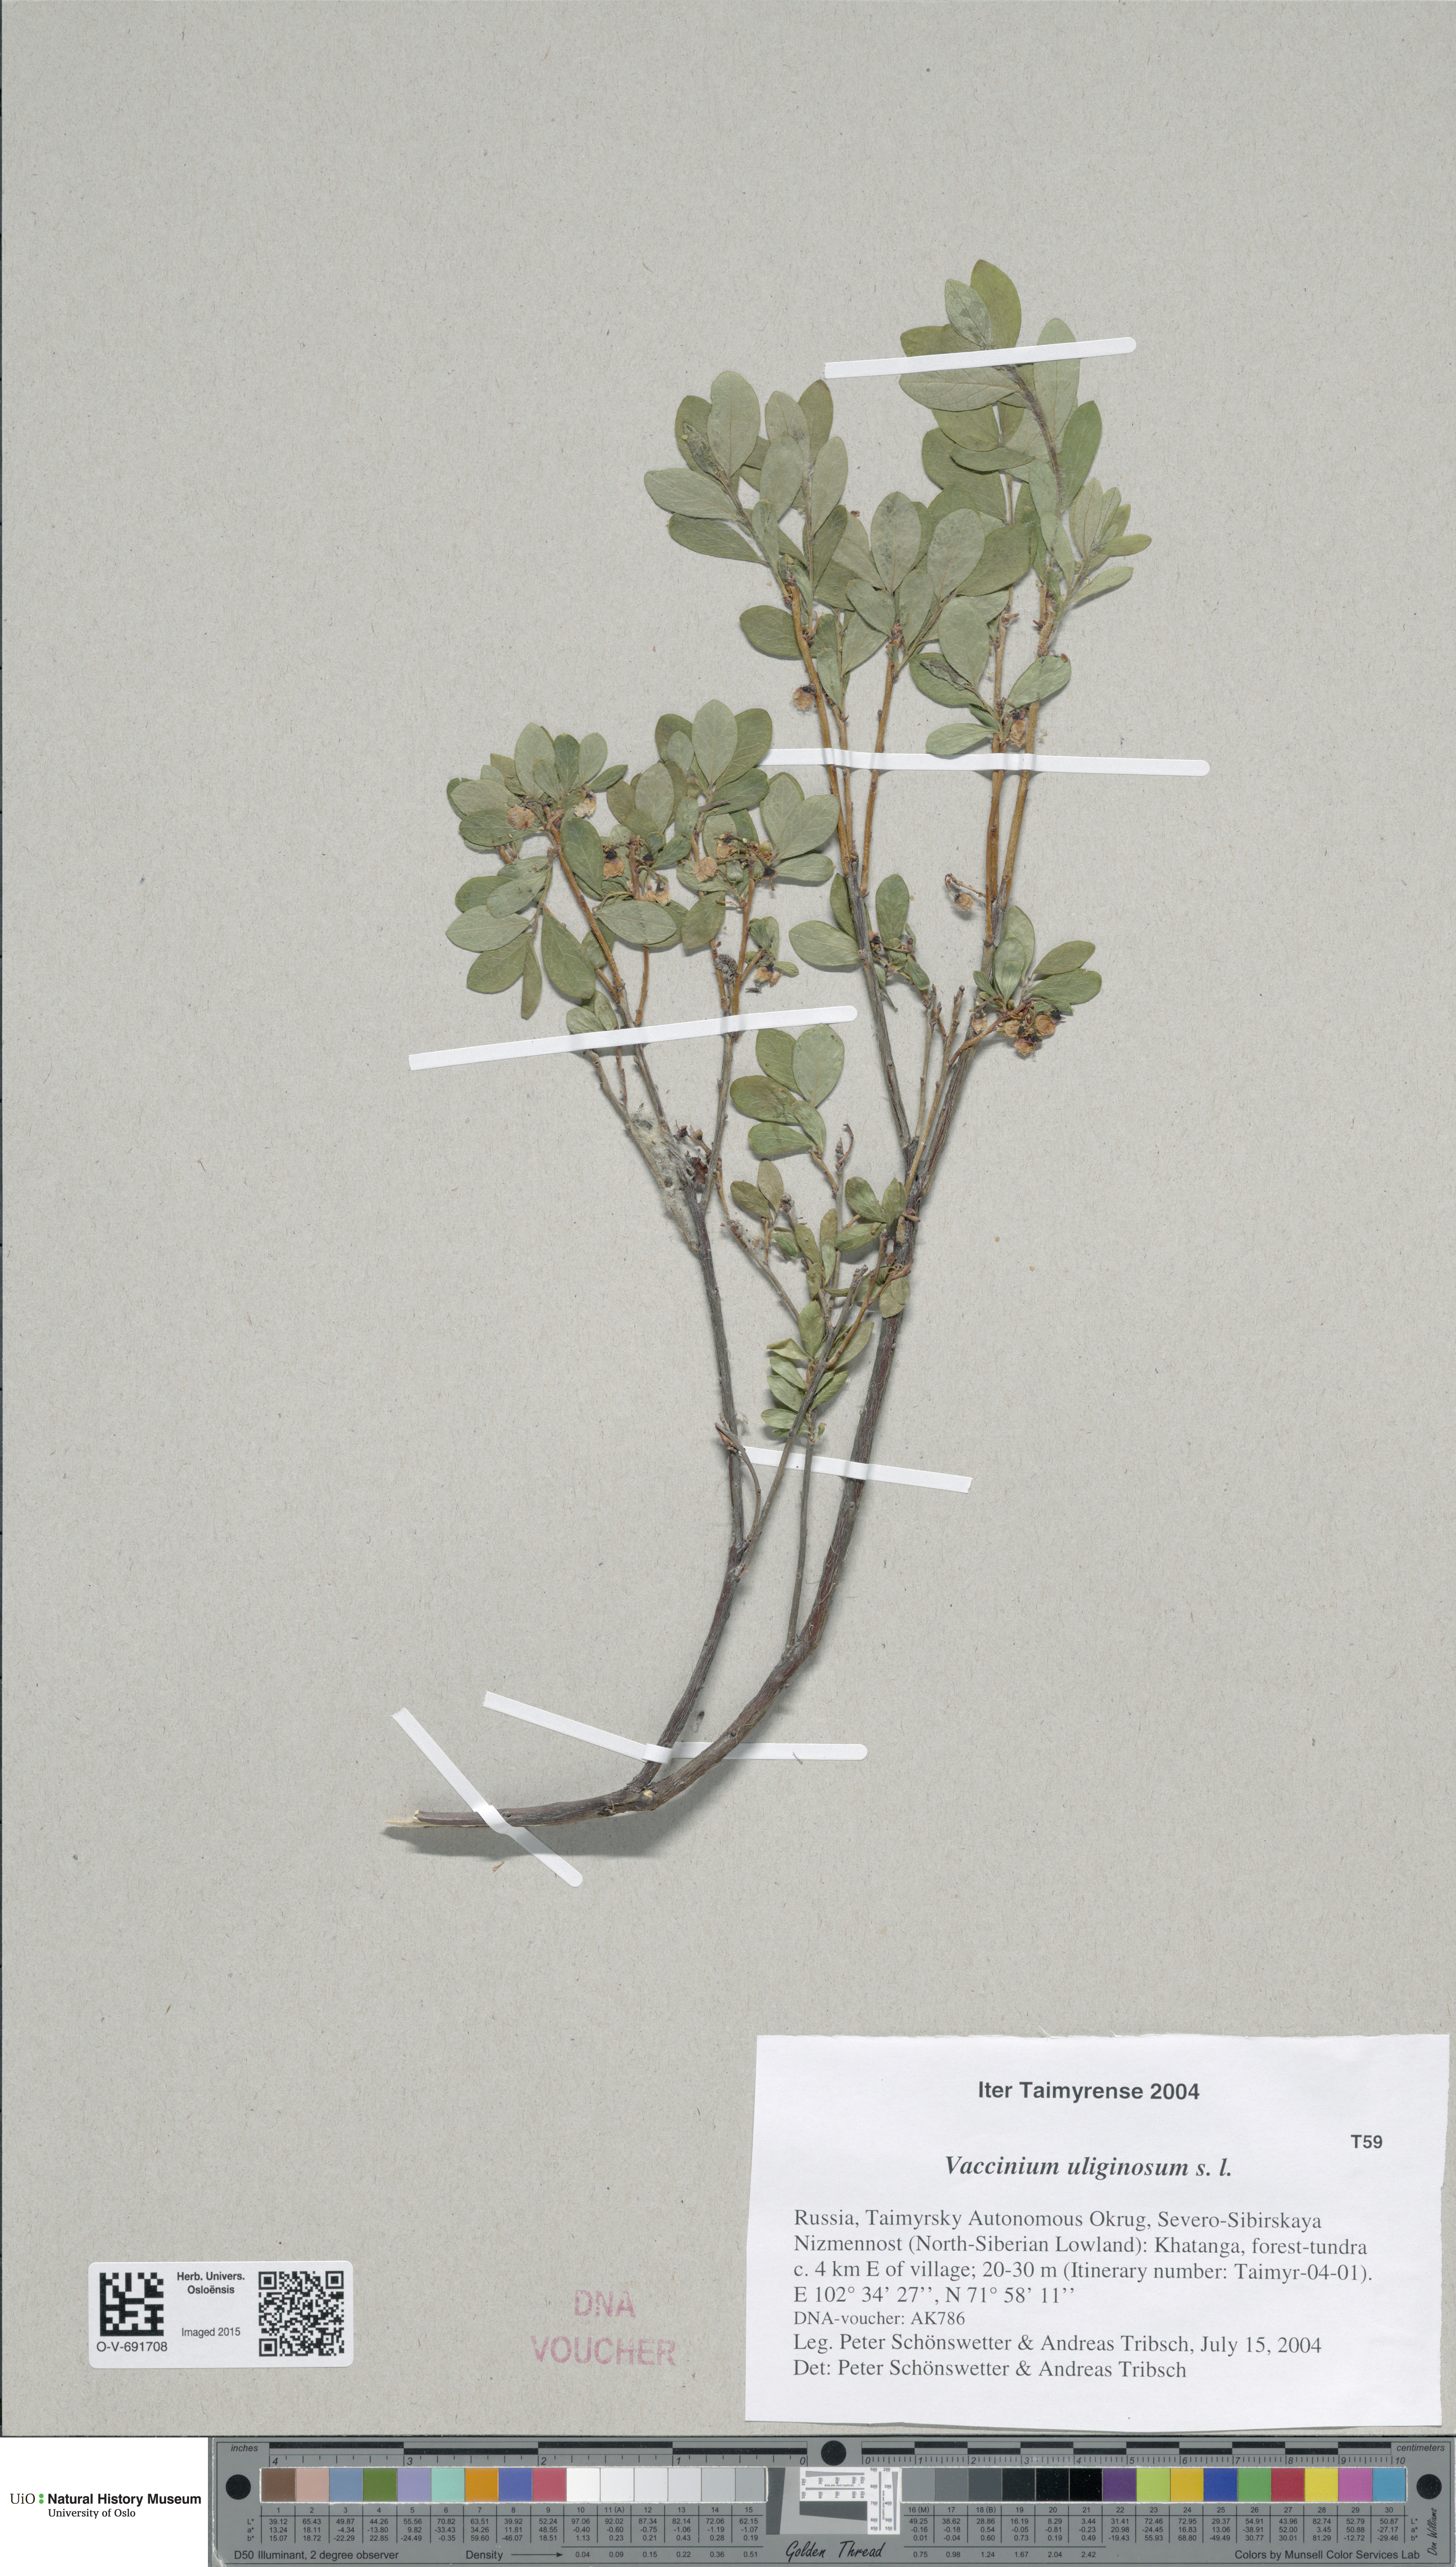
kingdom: Plantae
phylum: Tracheophyta
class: Magnoliopsida
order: Ericales
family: Ericaceae
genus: Vaccinium
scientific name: Vaccinium uliginosum
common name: Bog bilberry
